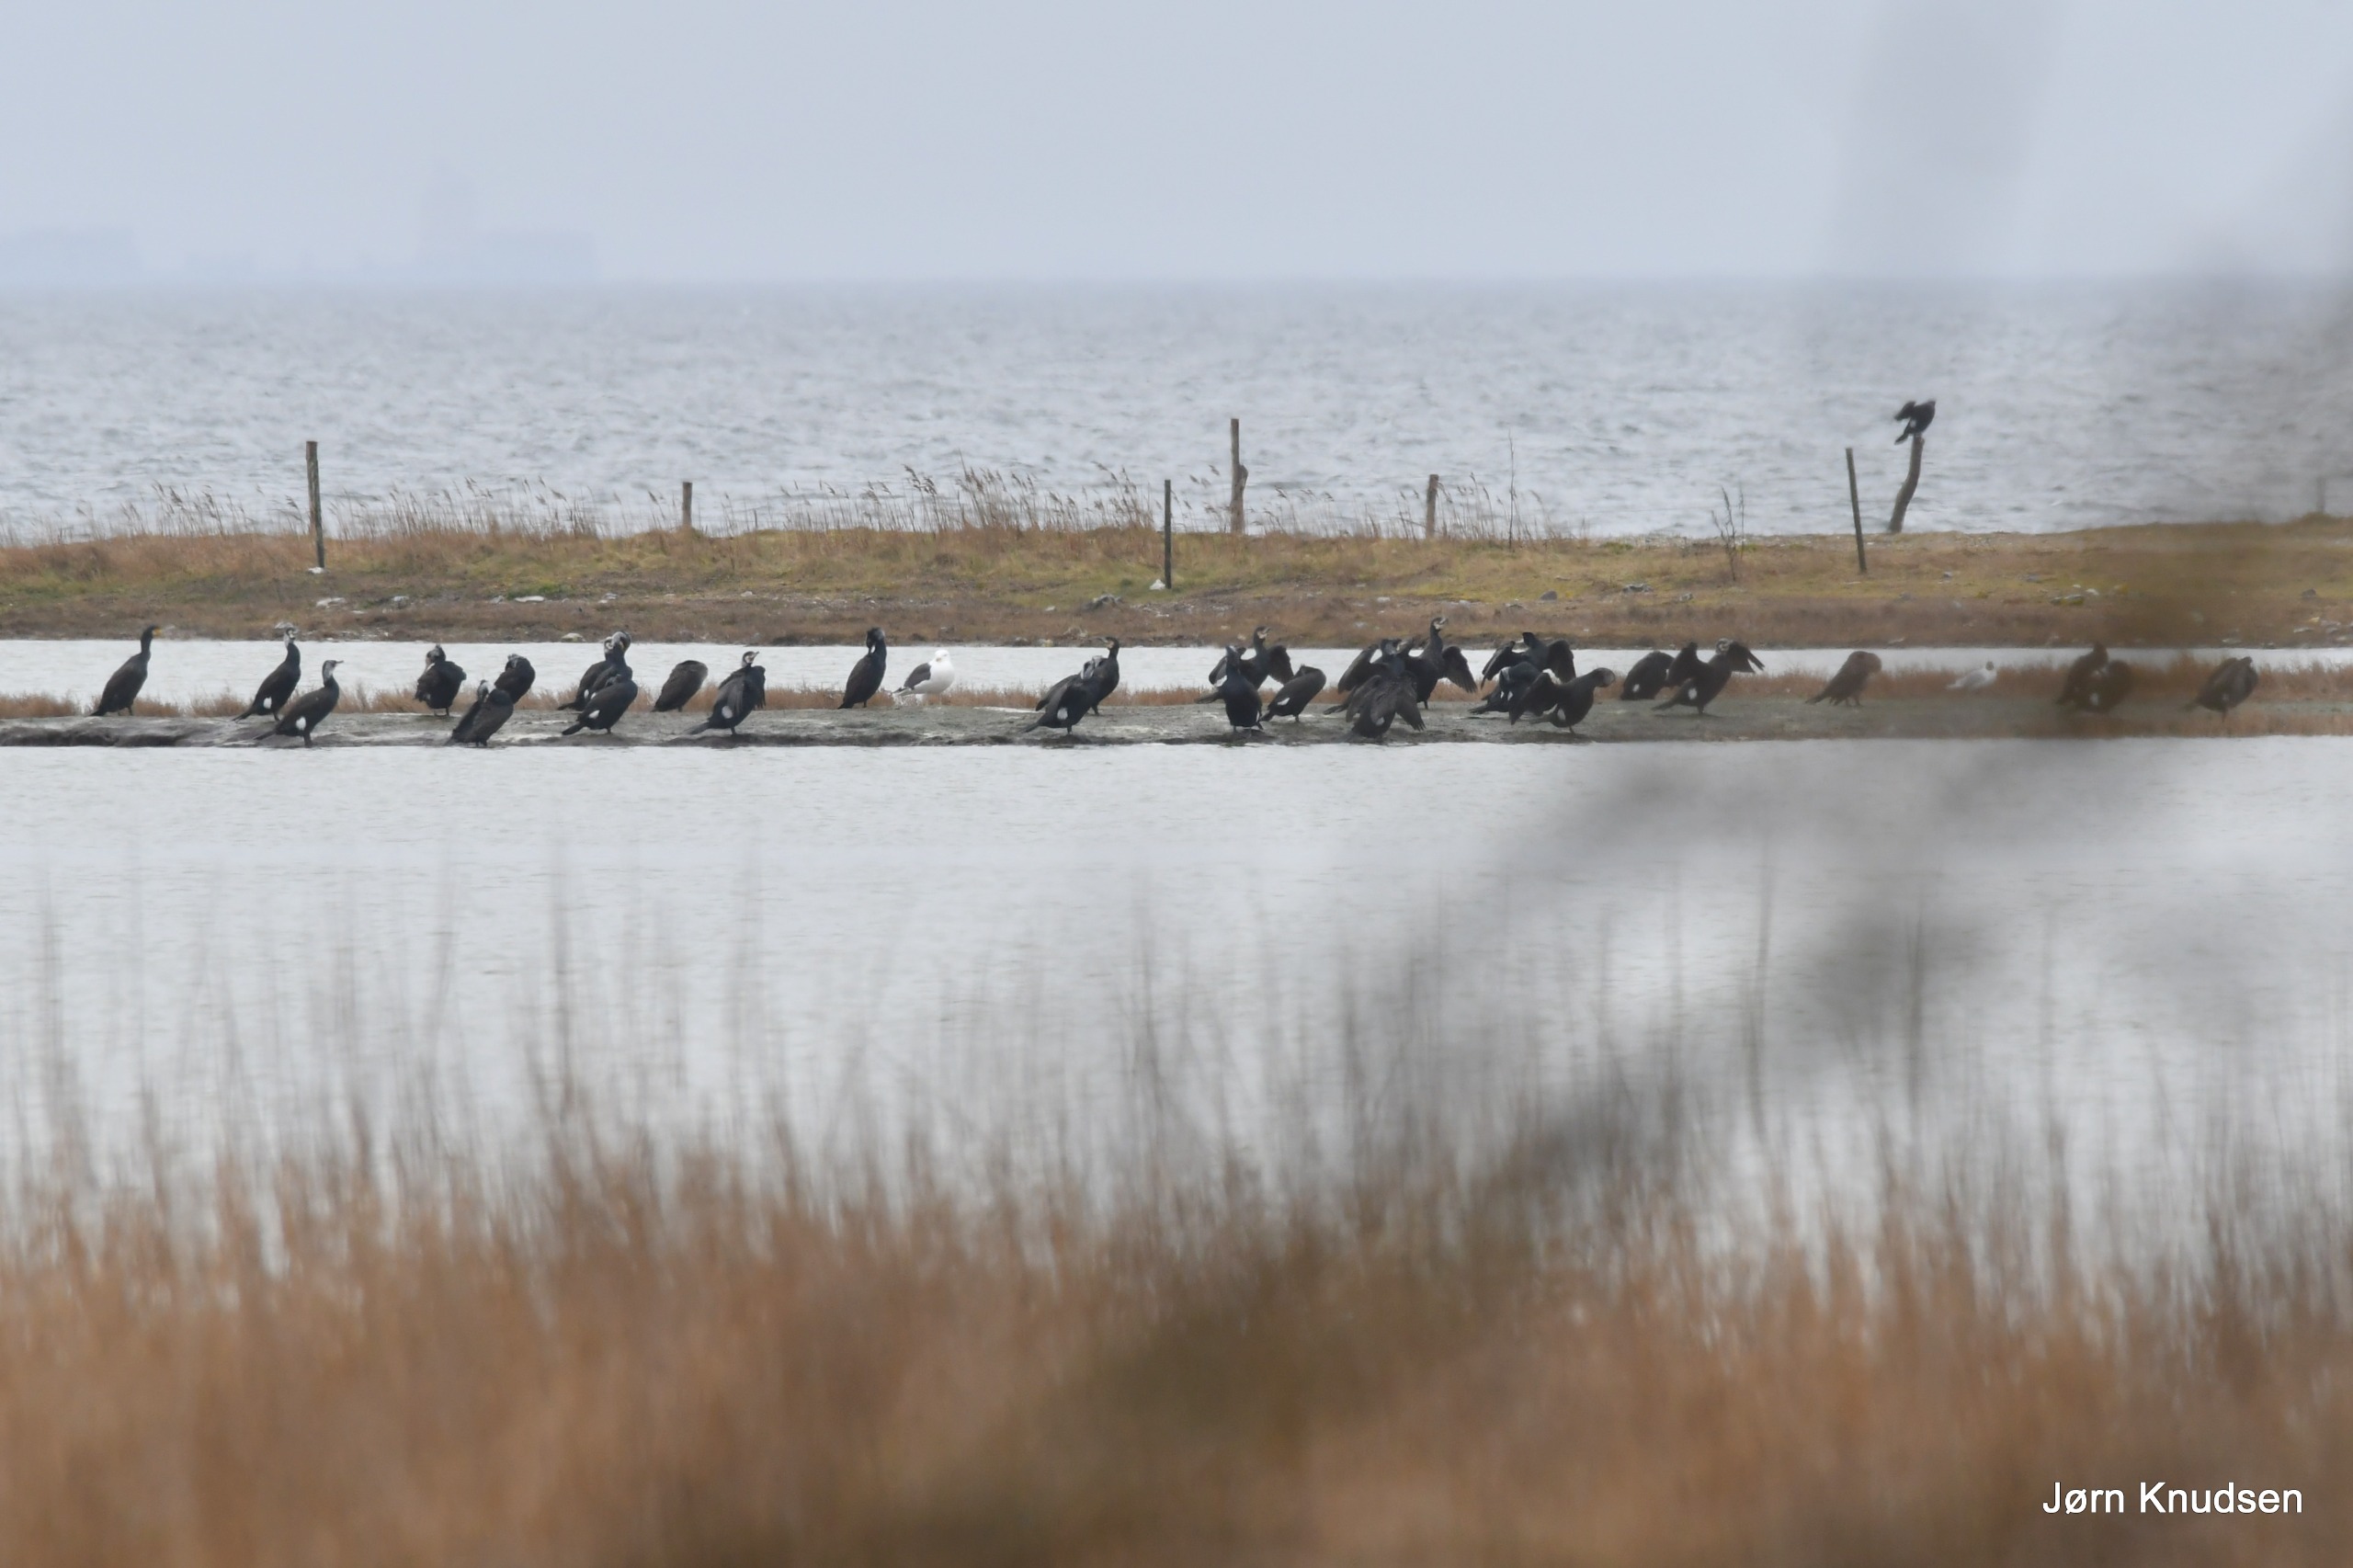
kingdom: Animalia
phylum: Chordata
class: Aves
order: Suliformes
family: Phalacrocoracidae
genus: Phalacrocorax
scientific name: Phalacrocorax carbo
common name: Skarv
